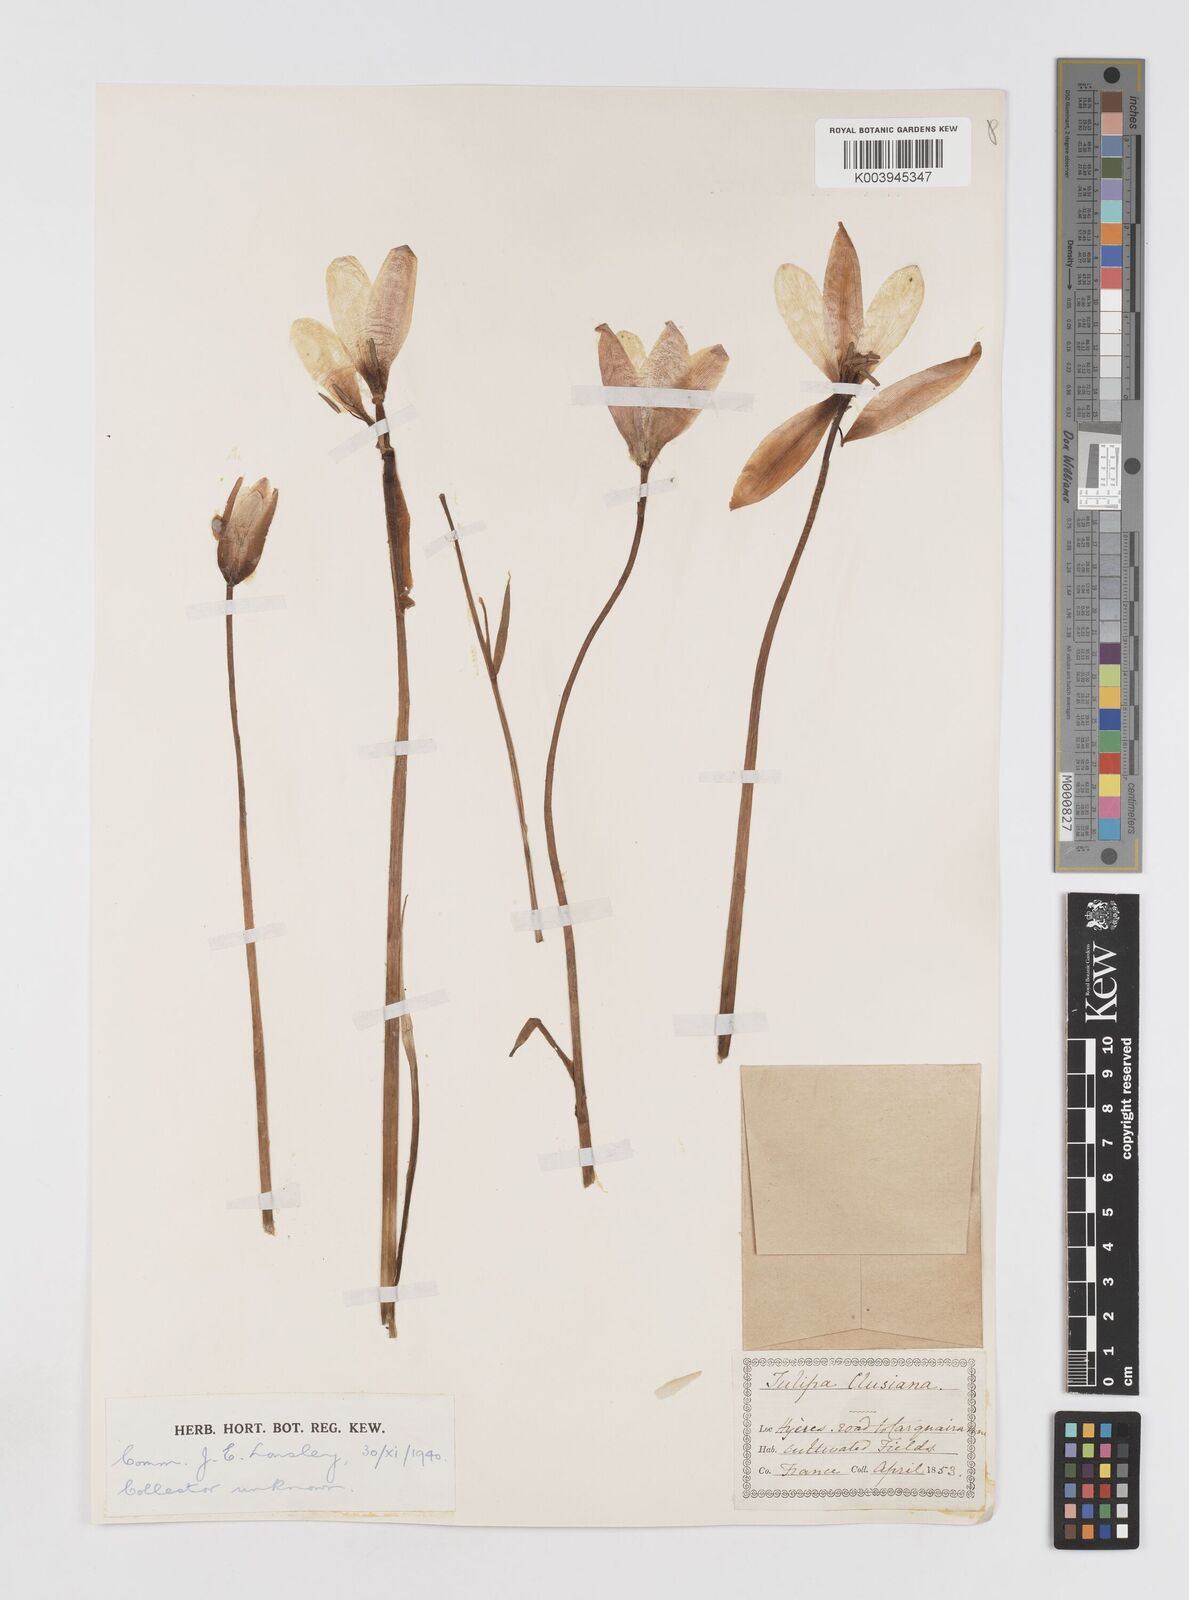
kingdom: Plantae
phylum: Tracheophyta
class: Liliopsida
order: Liliales
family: Liliaceae
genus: Tulipa
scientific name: Tulipa clusiana
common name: Lady tulip
